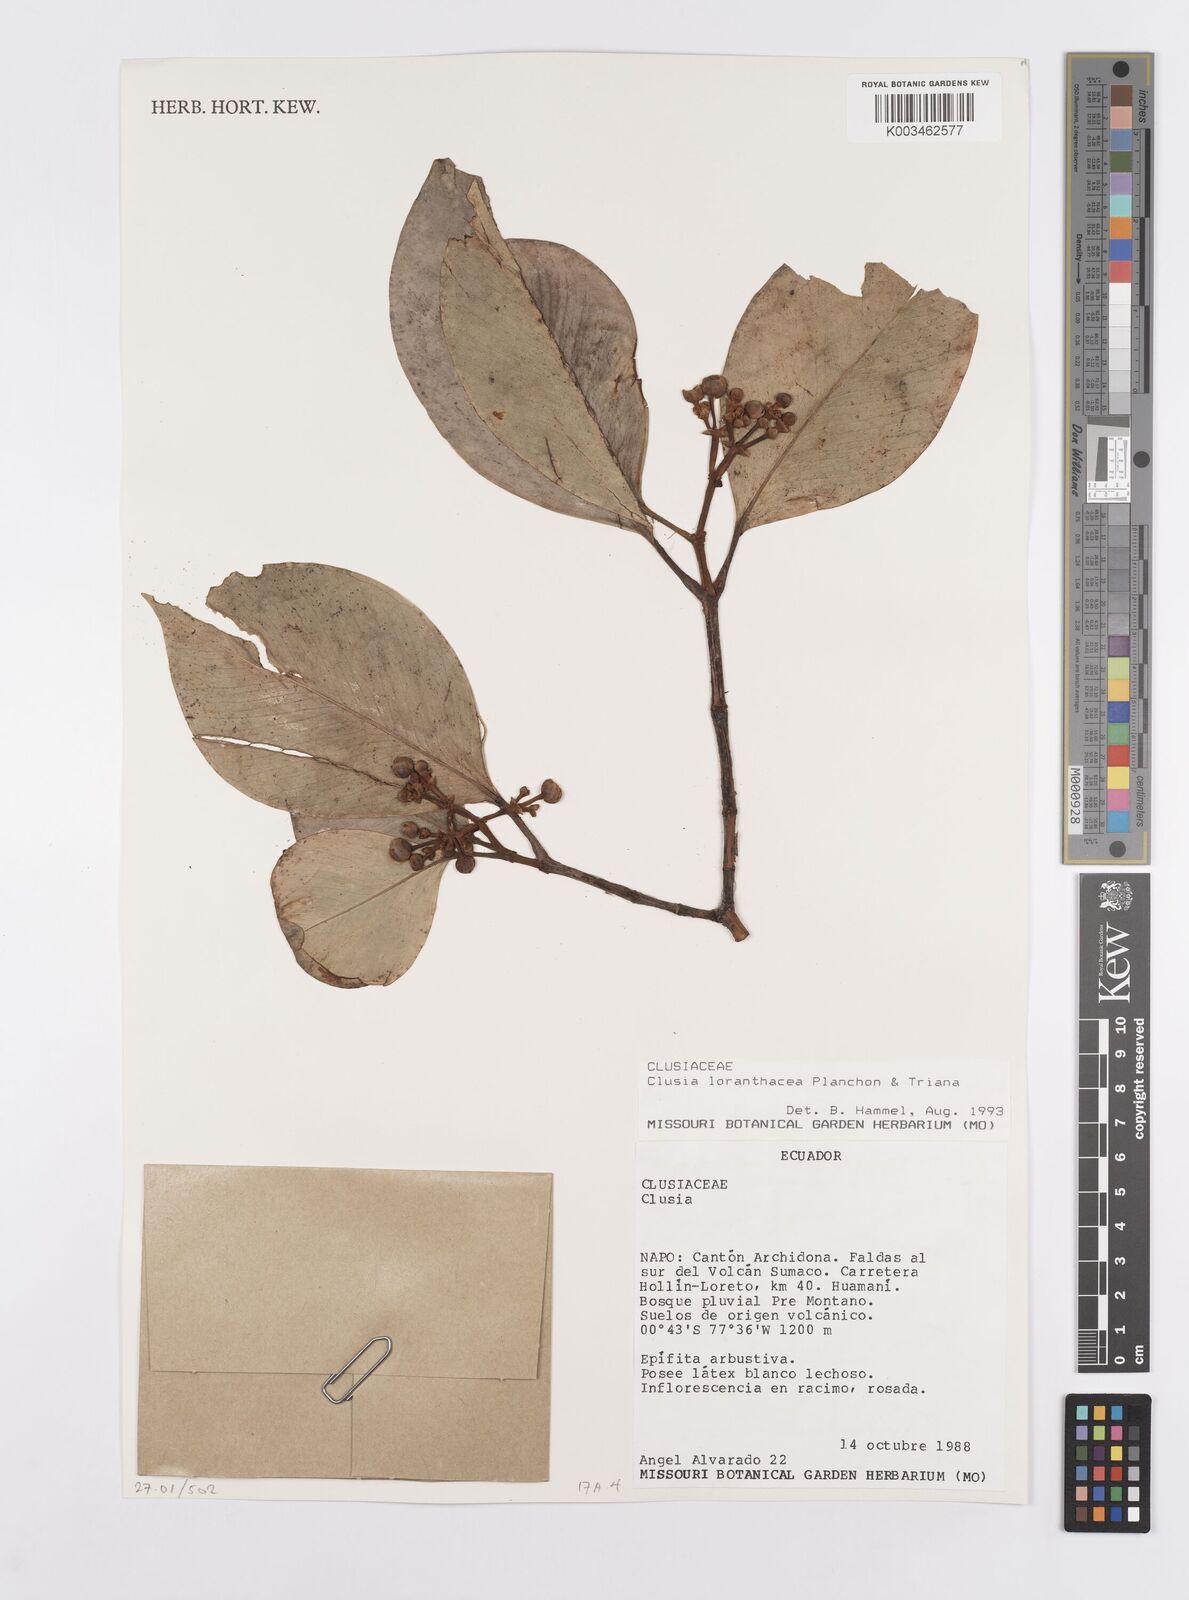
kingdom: Plantae
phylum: Tracheophyta
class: Magnoliopsida
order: Malpighiales
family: Clusiaceae
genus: Clusia
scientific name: Clusia loranthacea
